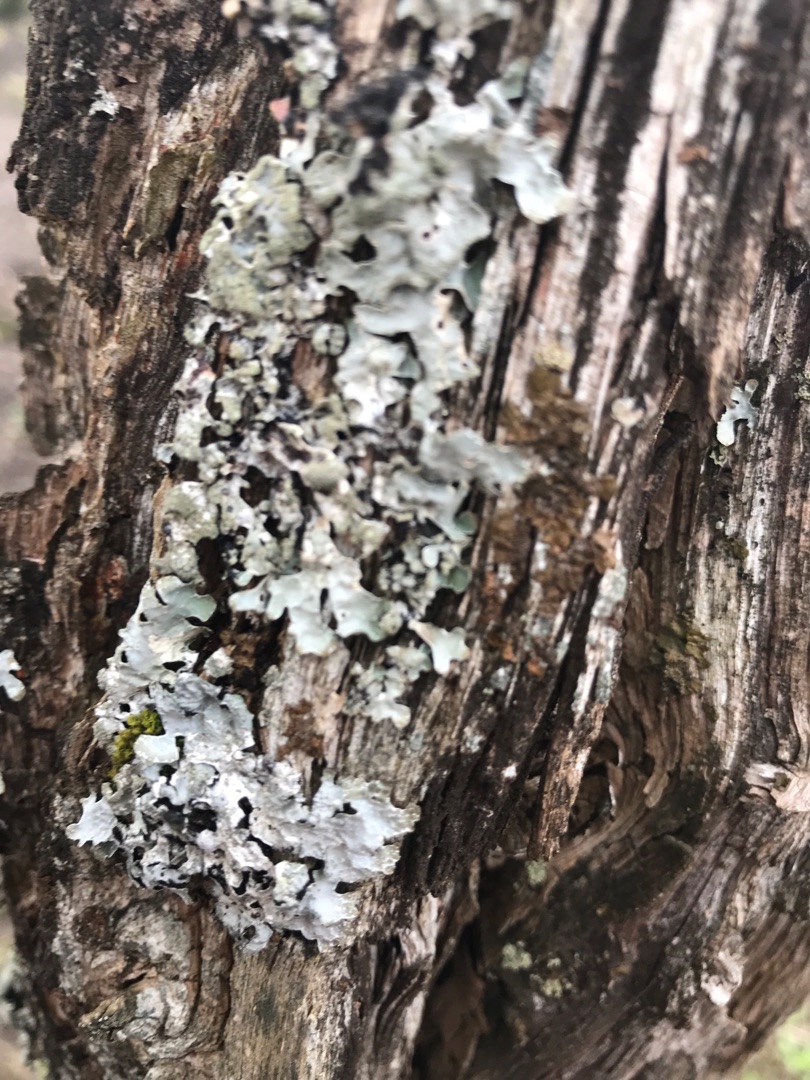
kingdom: Fungi
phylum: Ascomycota
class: Lecanoromycetes
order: Lecanorales
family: Parmeliaceae
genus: Parmelia
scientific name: Parmelia sulcata
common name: Rynket skållav
